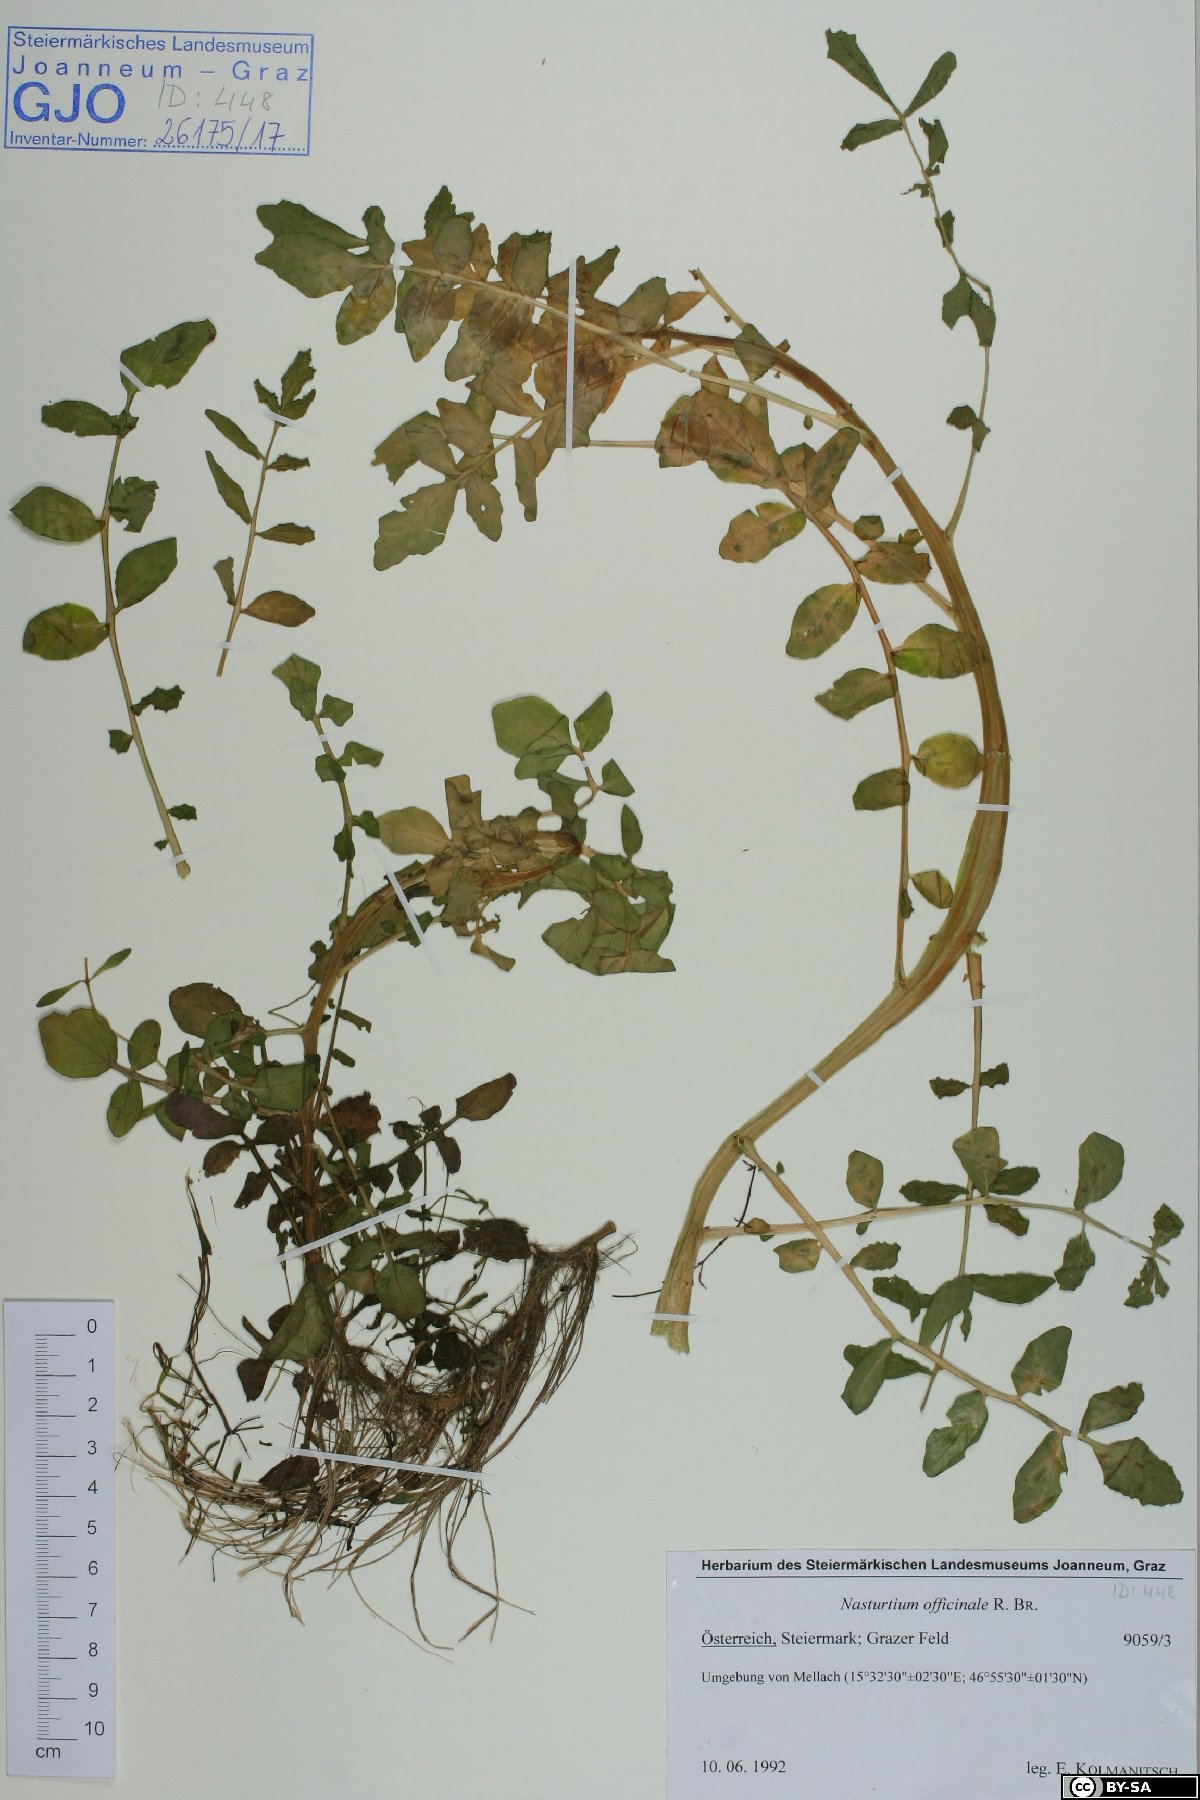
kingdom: Plantae
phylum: Tracheophyta
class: Magnoliopsida
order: Brassicales
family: Brassicaceae
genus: Nasturtium
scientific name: Nasturtium officinale
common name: Watercress
